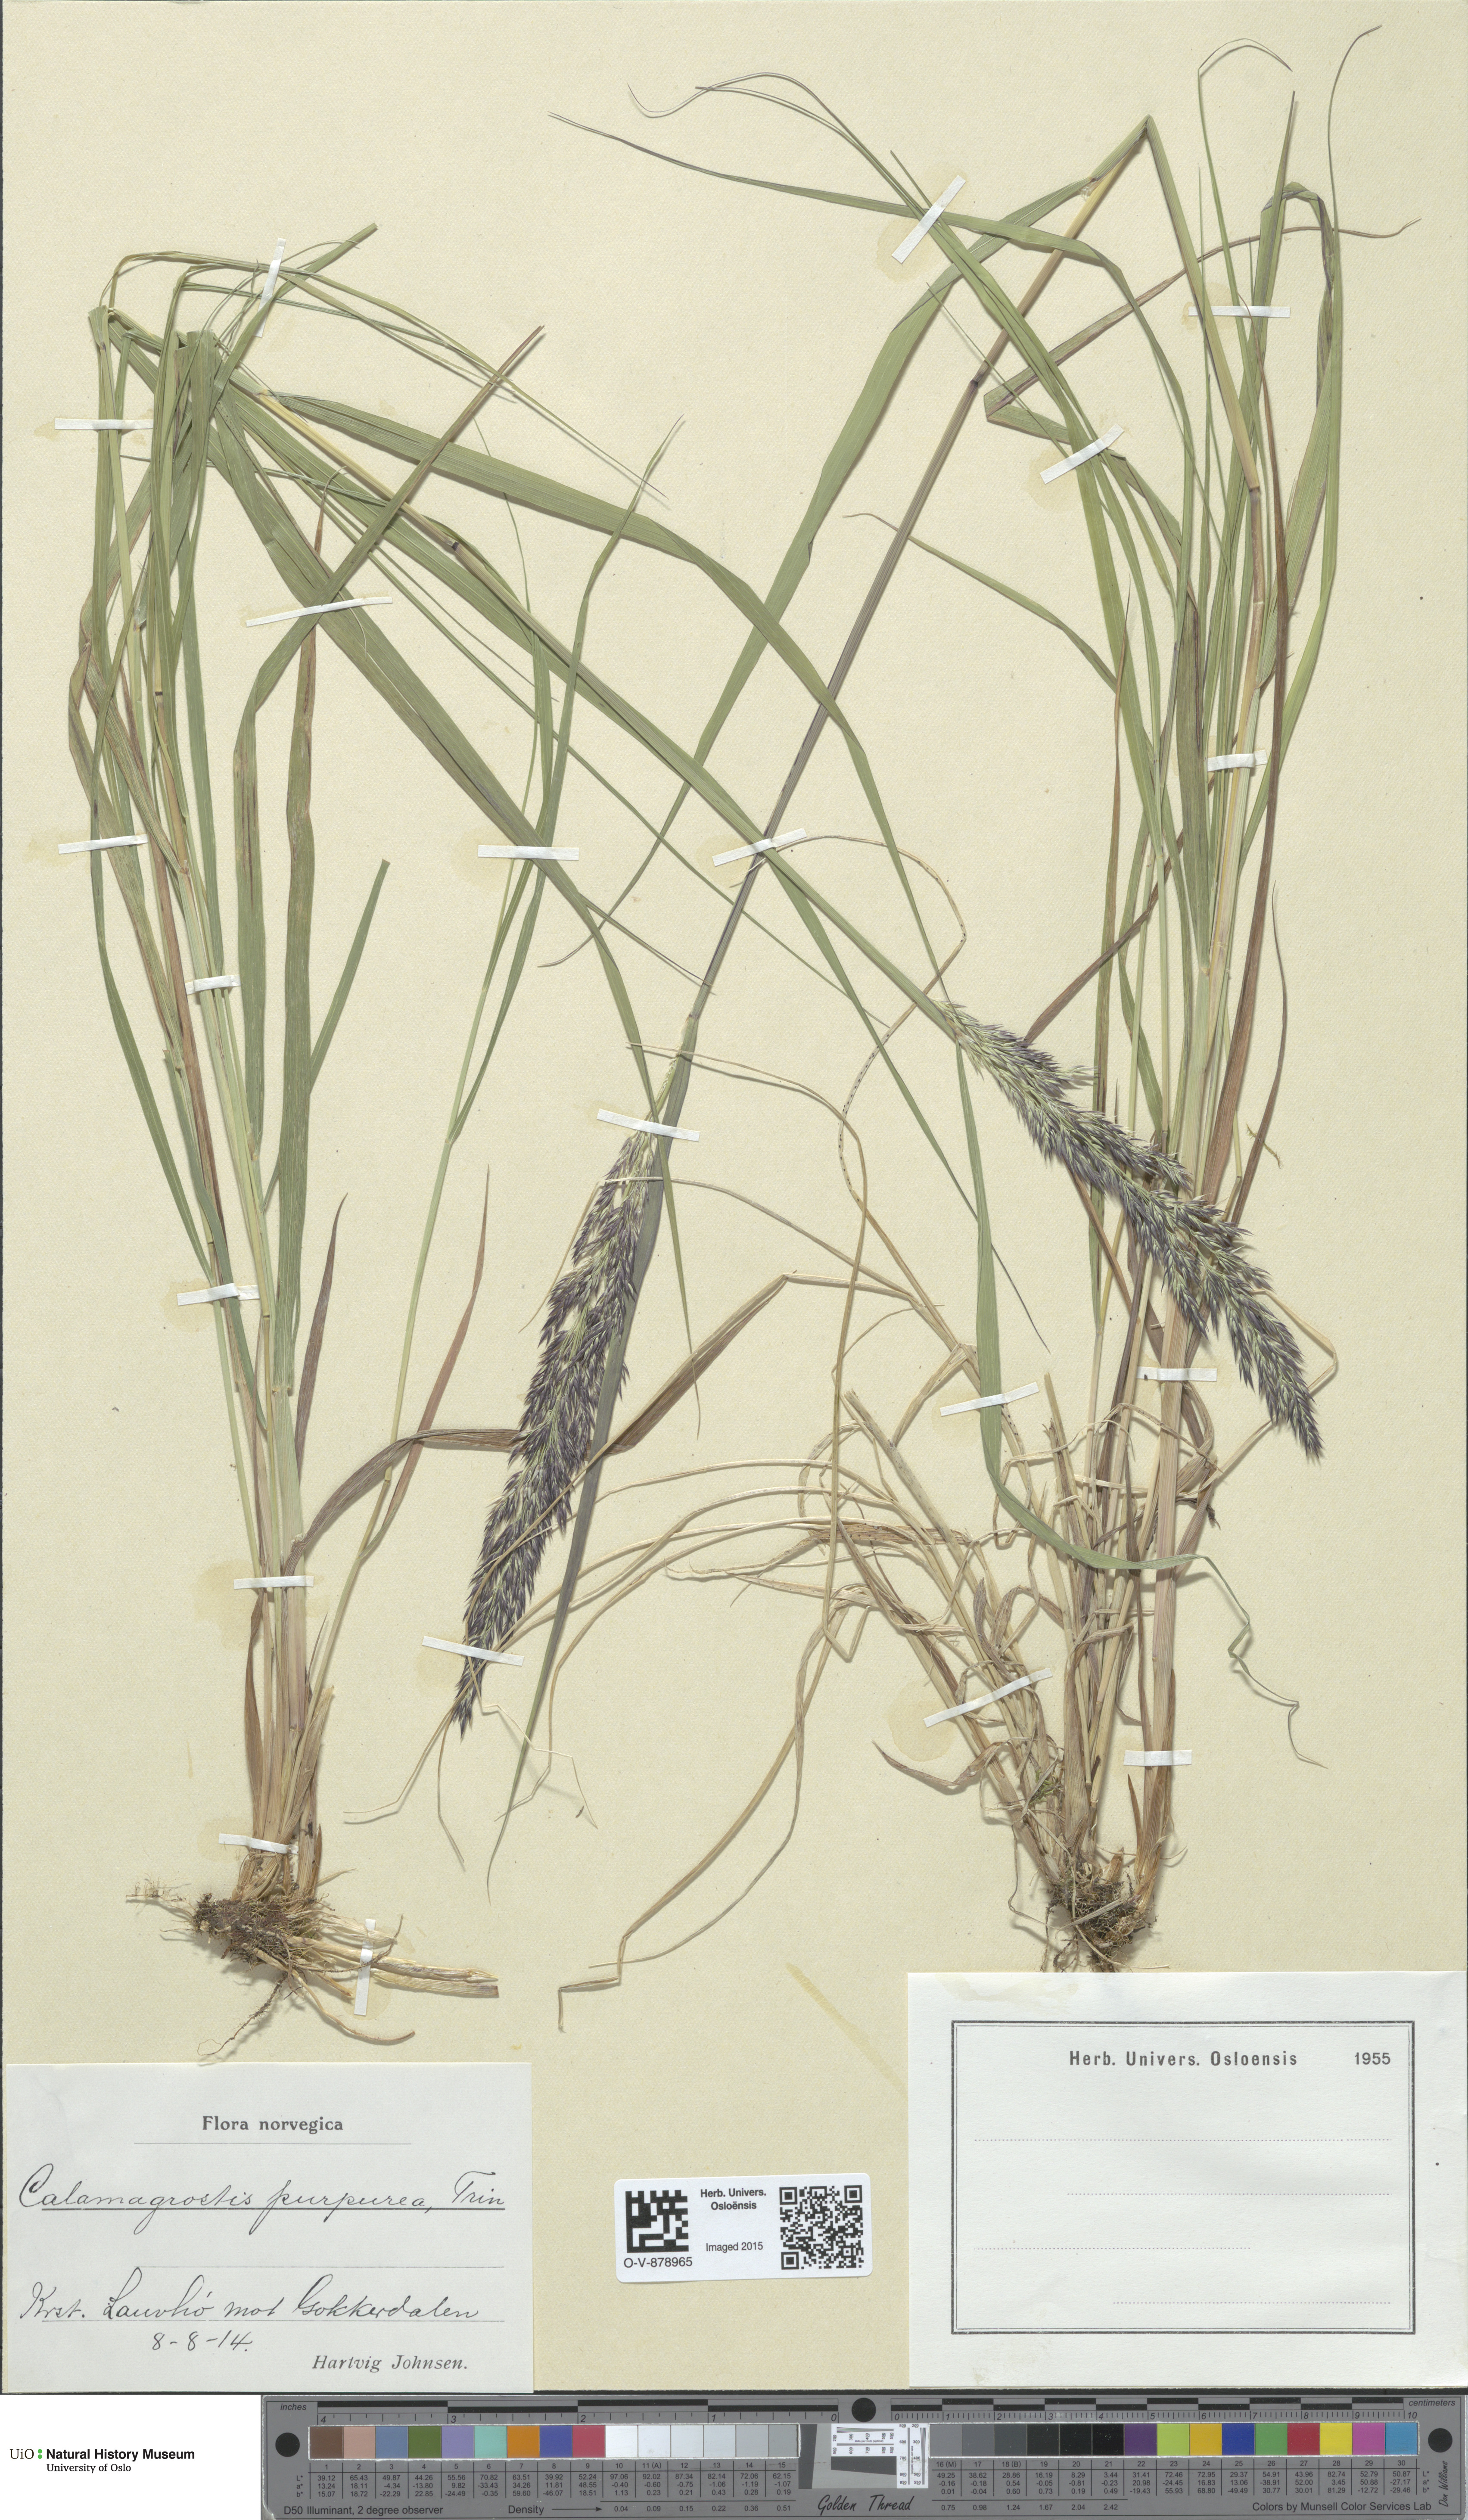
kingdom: Plantae
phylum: Tracheophyta
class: Liliopsida
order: Poales
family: Poaceae
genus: Calamagrostis
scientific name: Calamagrostis purpurea
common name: Scandinavian small-reed
